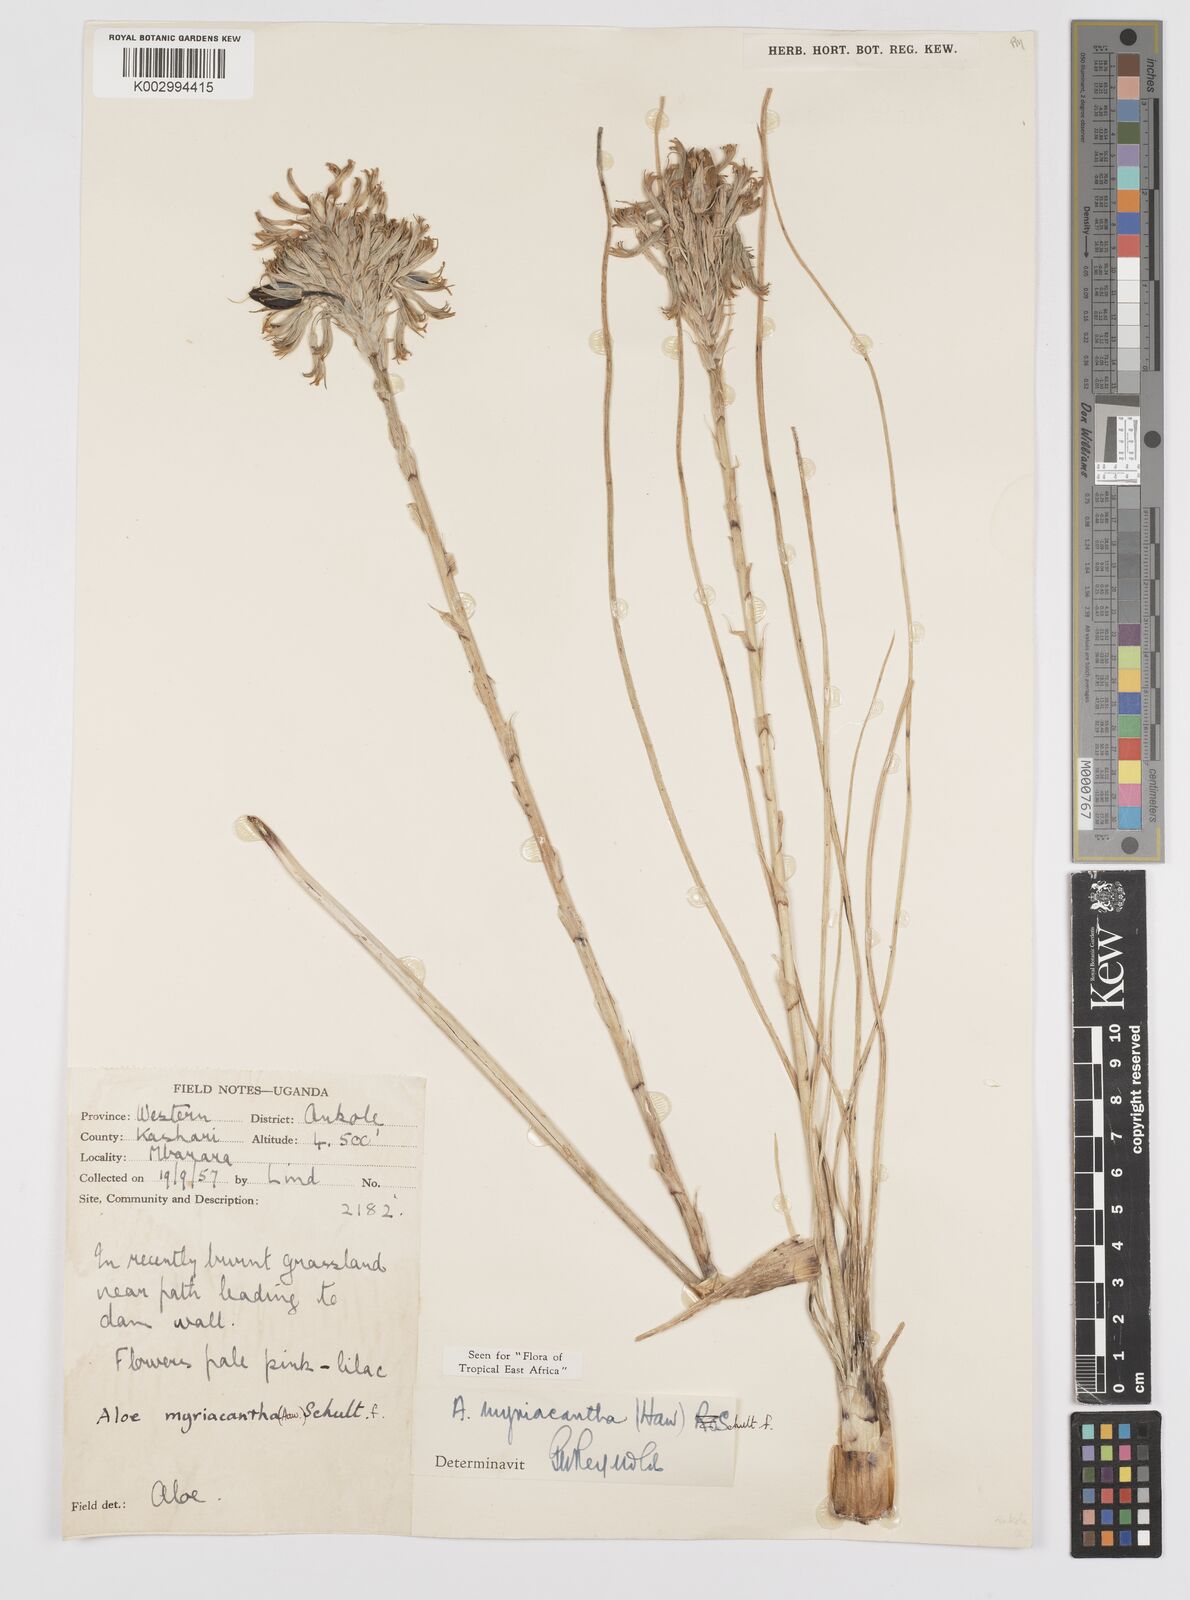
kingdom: Plantae
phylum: Tracheophyta
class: Liliopsida
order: Asparagales
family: Asphodelaceae
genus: Aloe
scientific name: Aloe myriacantha
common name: Grass aloe
